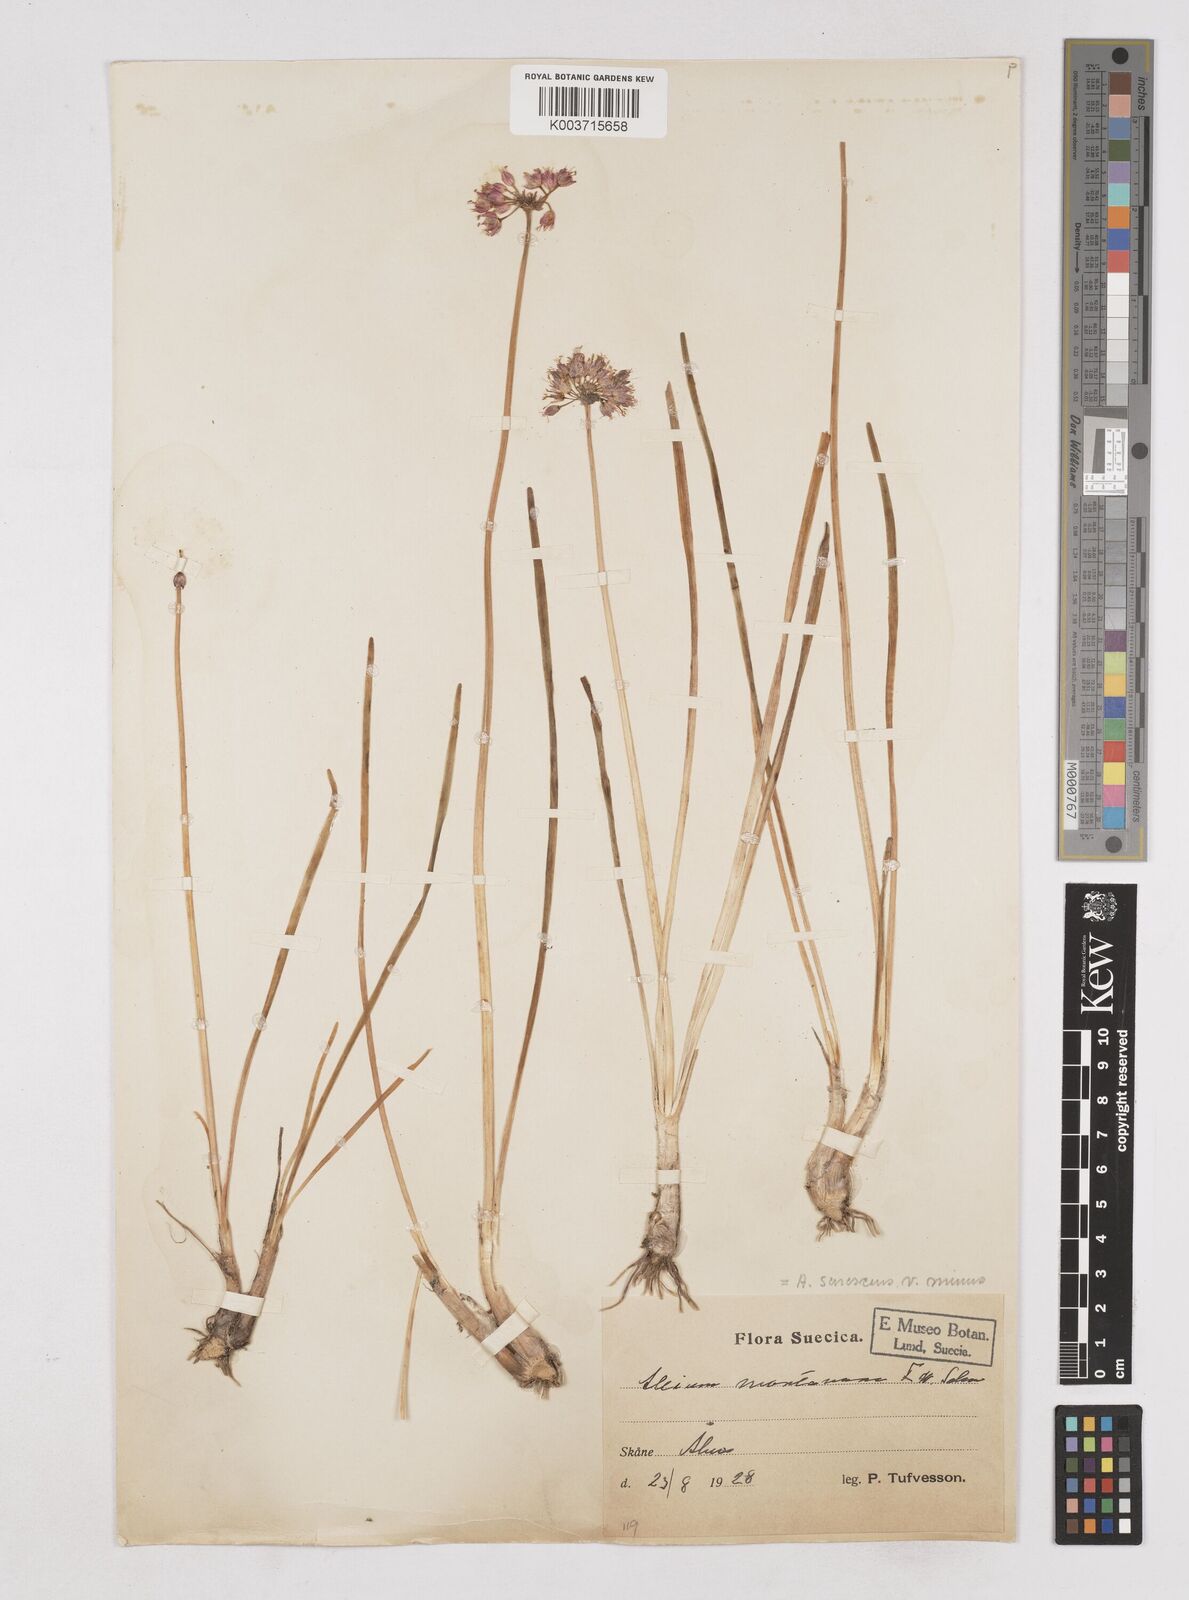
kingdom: Plantae
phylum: Tracheophyta
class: Liliopsida
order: Asparagales
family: Amaryllidaceae
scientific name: Amaryllidaceae
